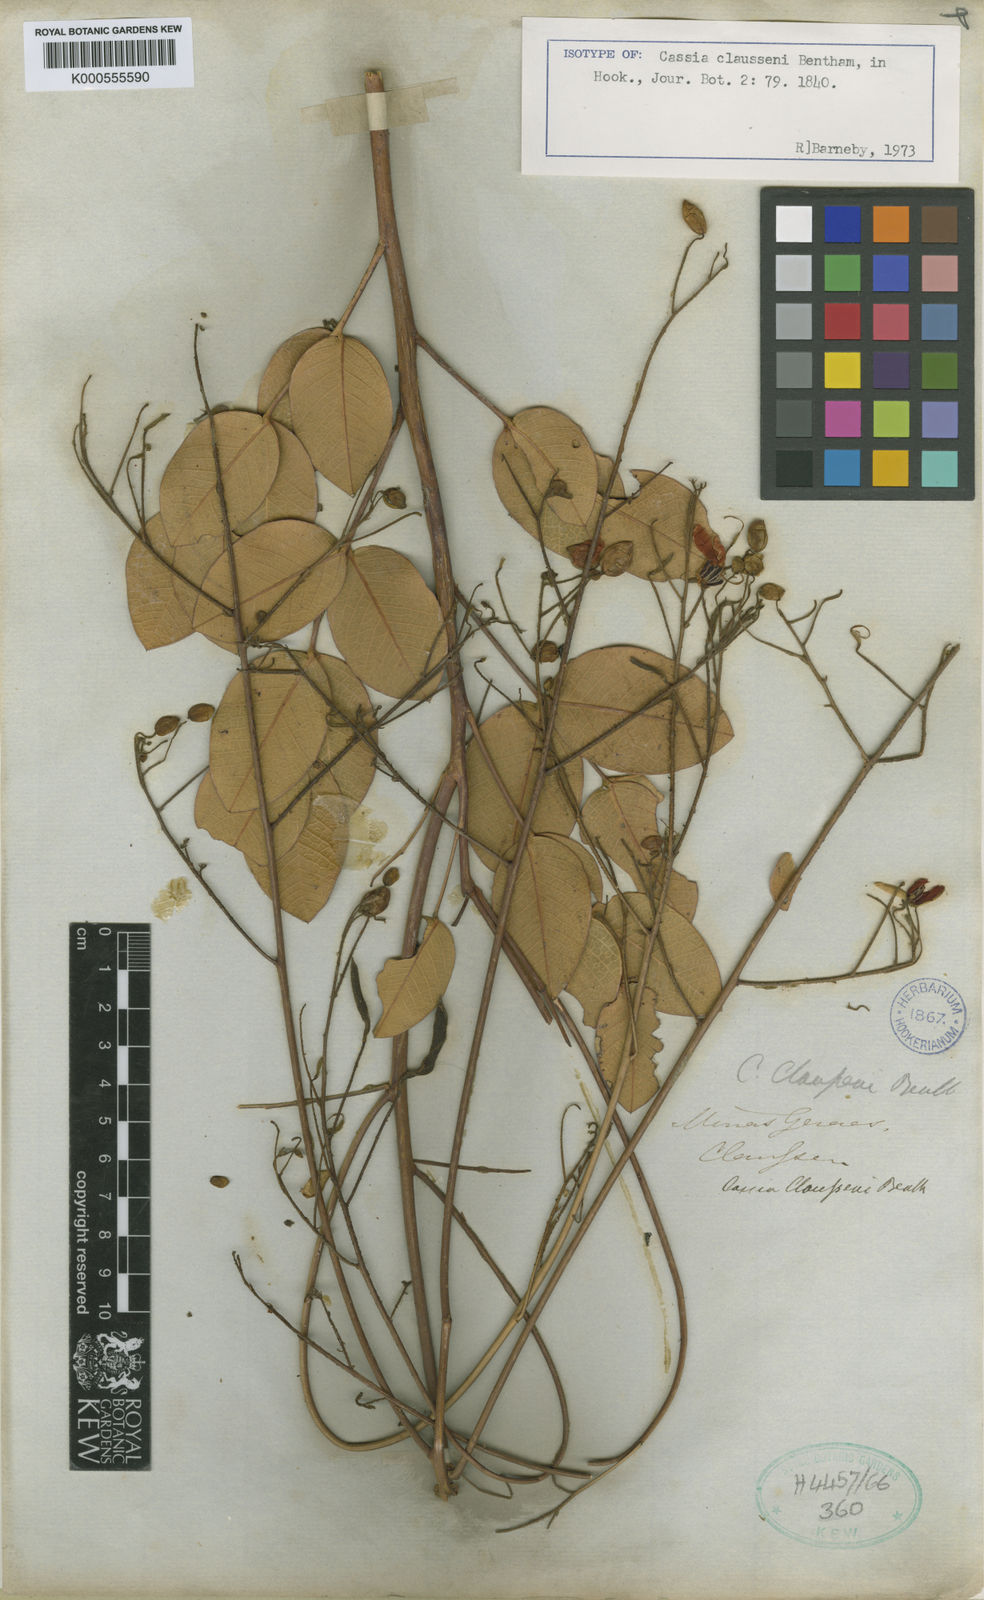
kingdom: Plantae
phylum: Tracheophyta
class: Magnoliopsida
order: Fabales
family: Fabaceae
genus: Chamaecrista
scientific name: Chamaecrista claussenii
